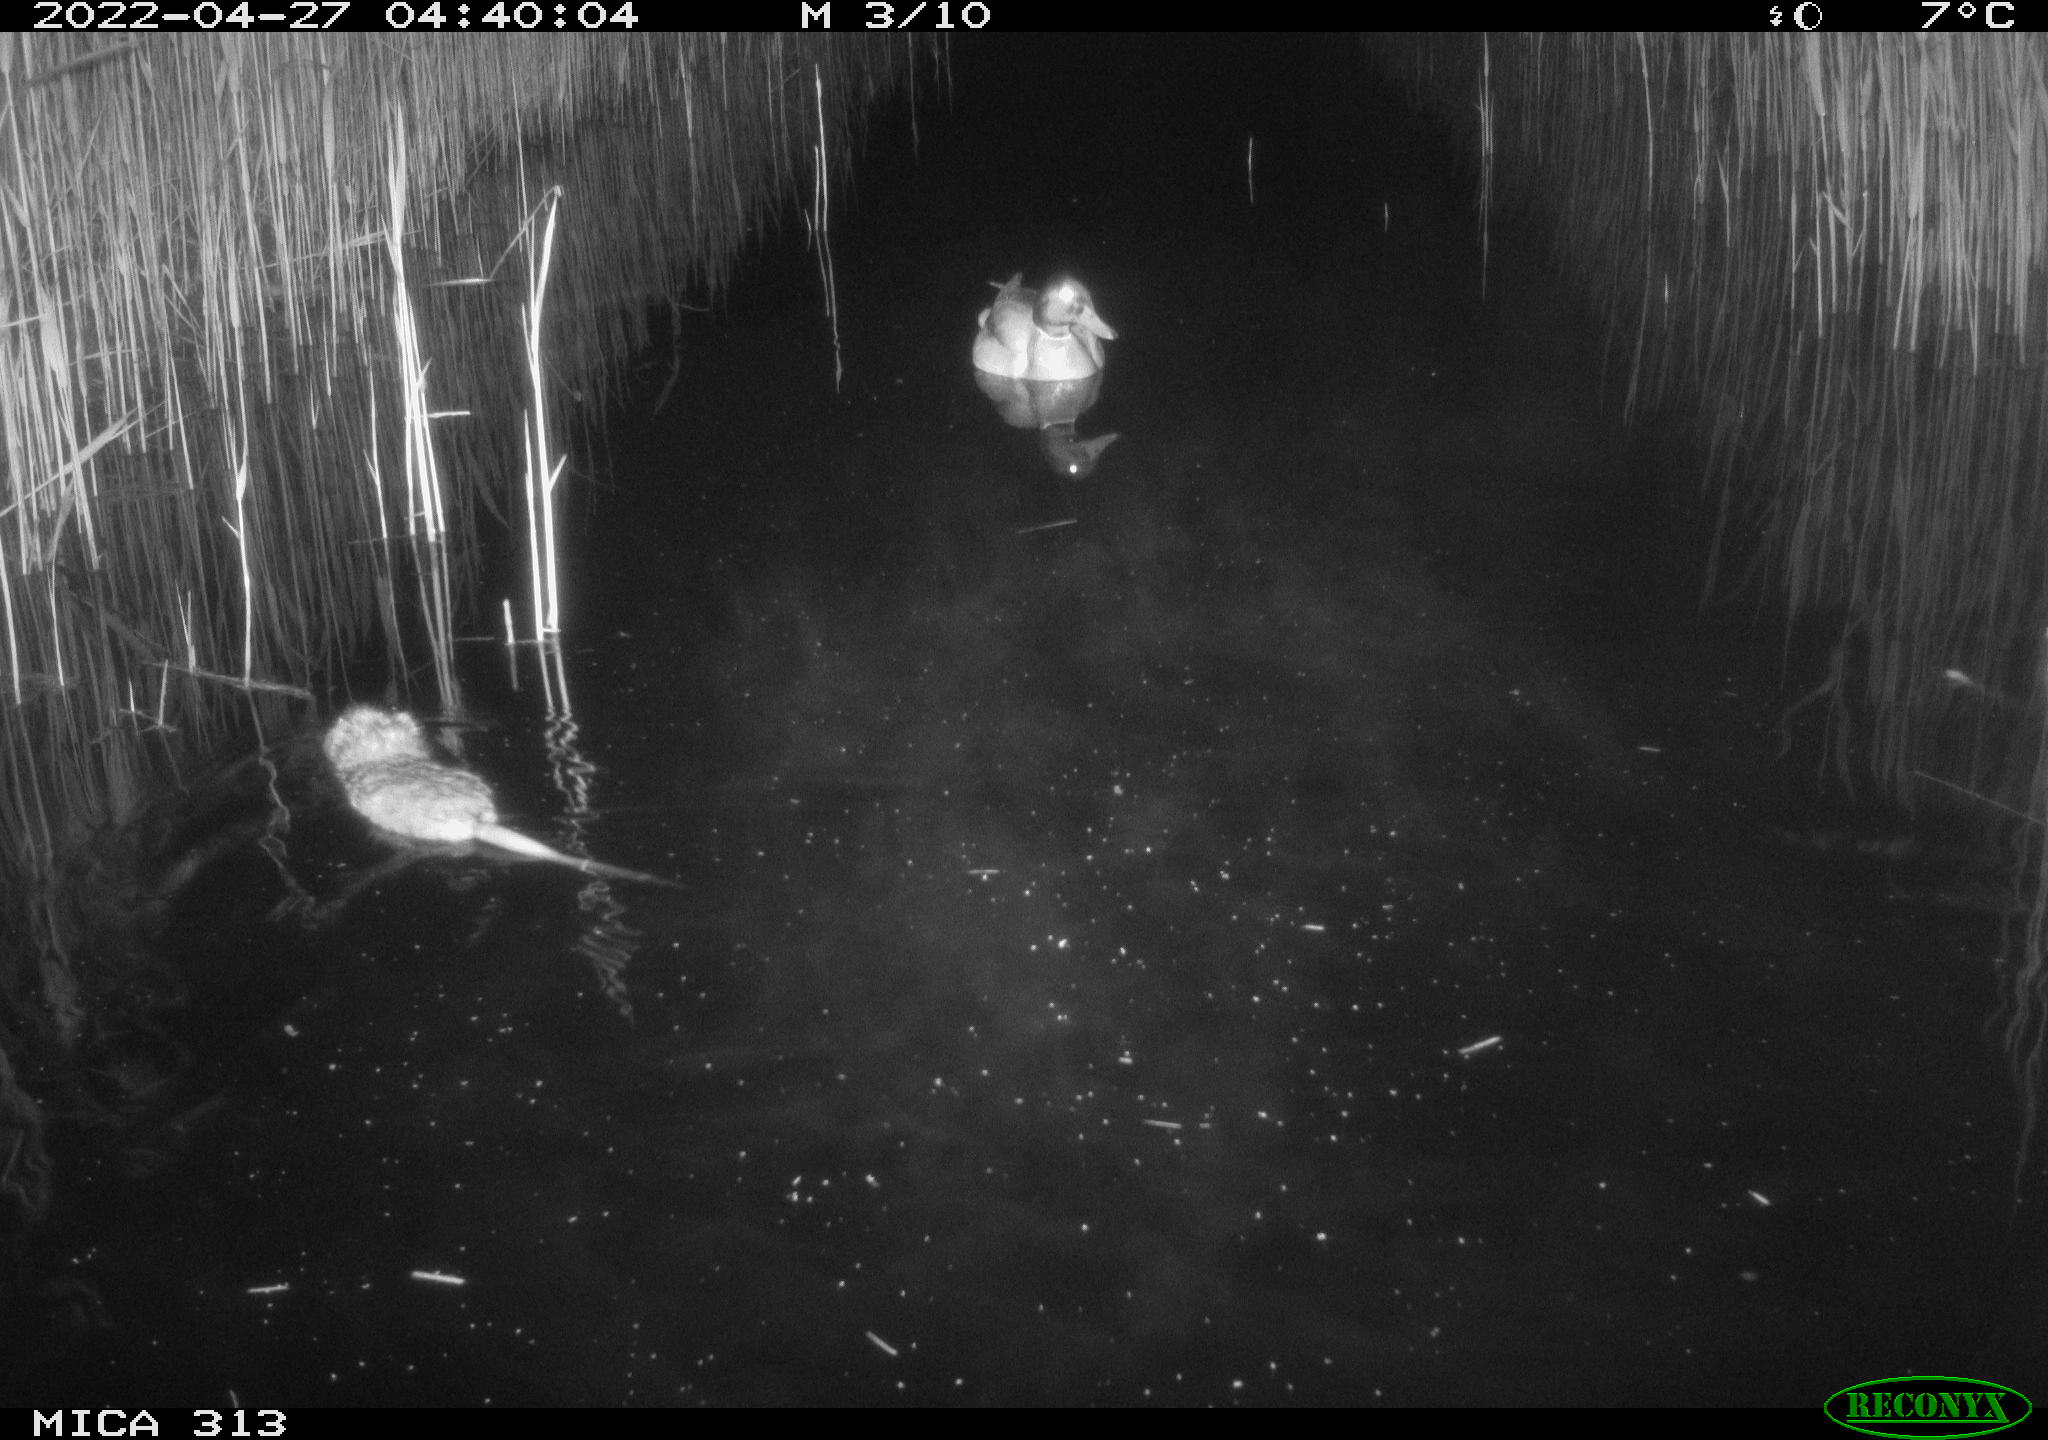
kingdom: Animalia
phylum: Chordata
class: Mammalia
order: Rodentia
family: Cricetidae
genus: Ondatra
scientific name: Ondatra zibethicus
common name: Muskrat
